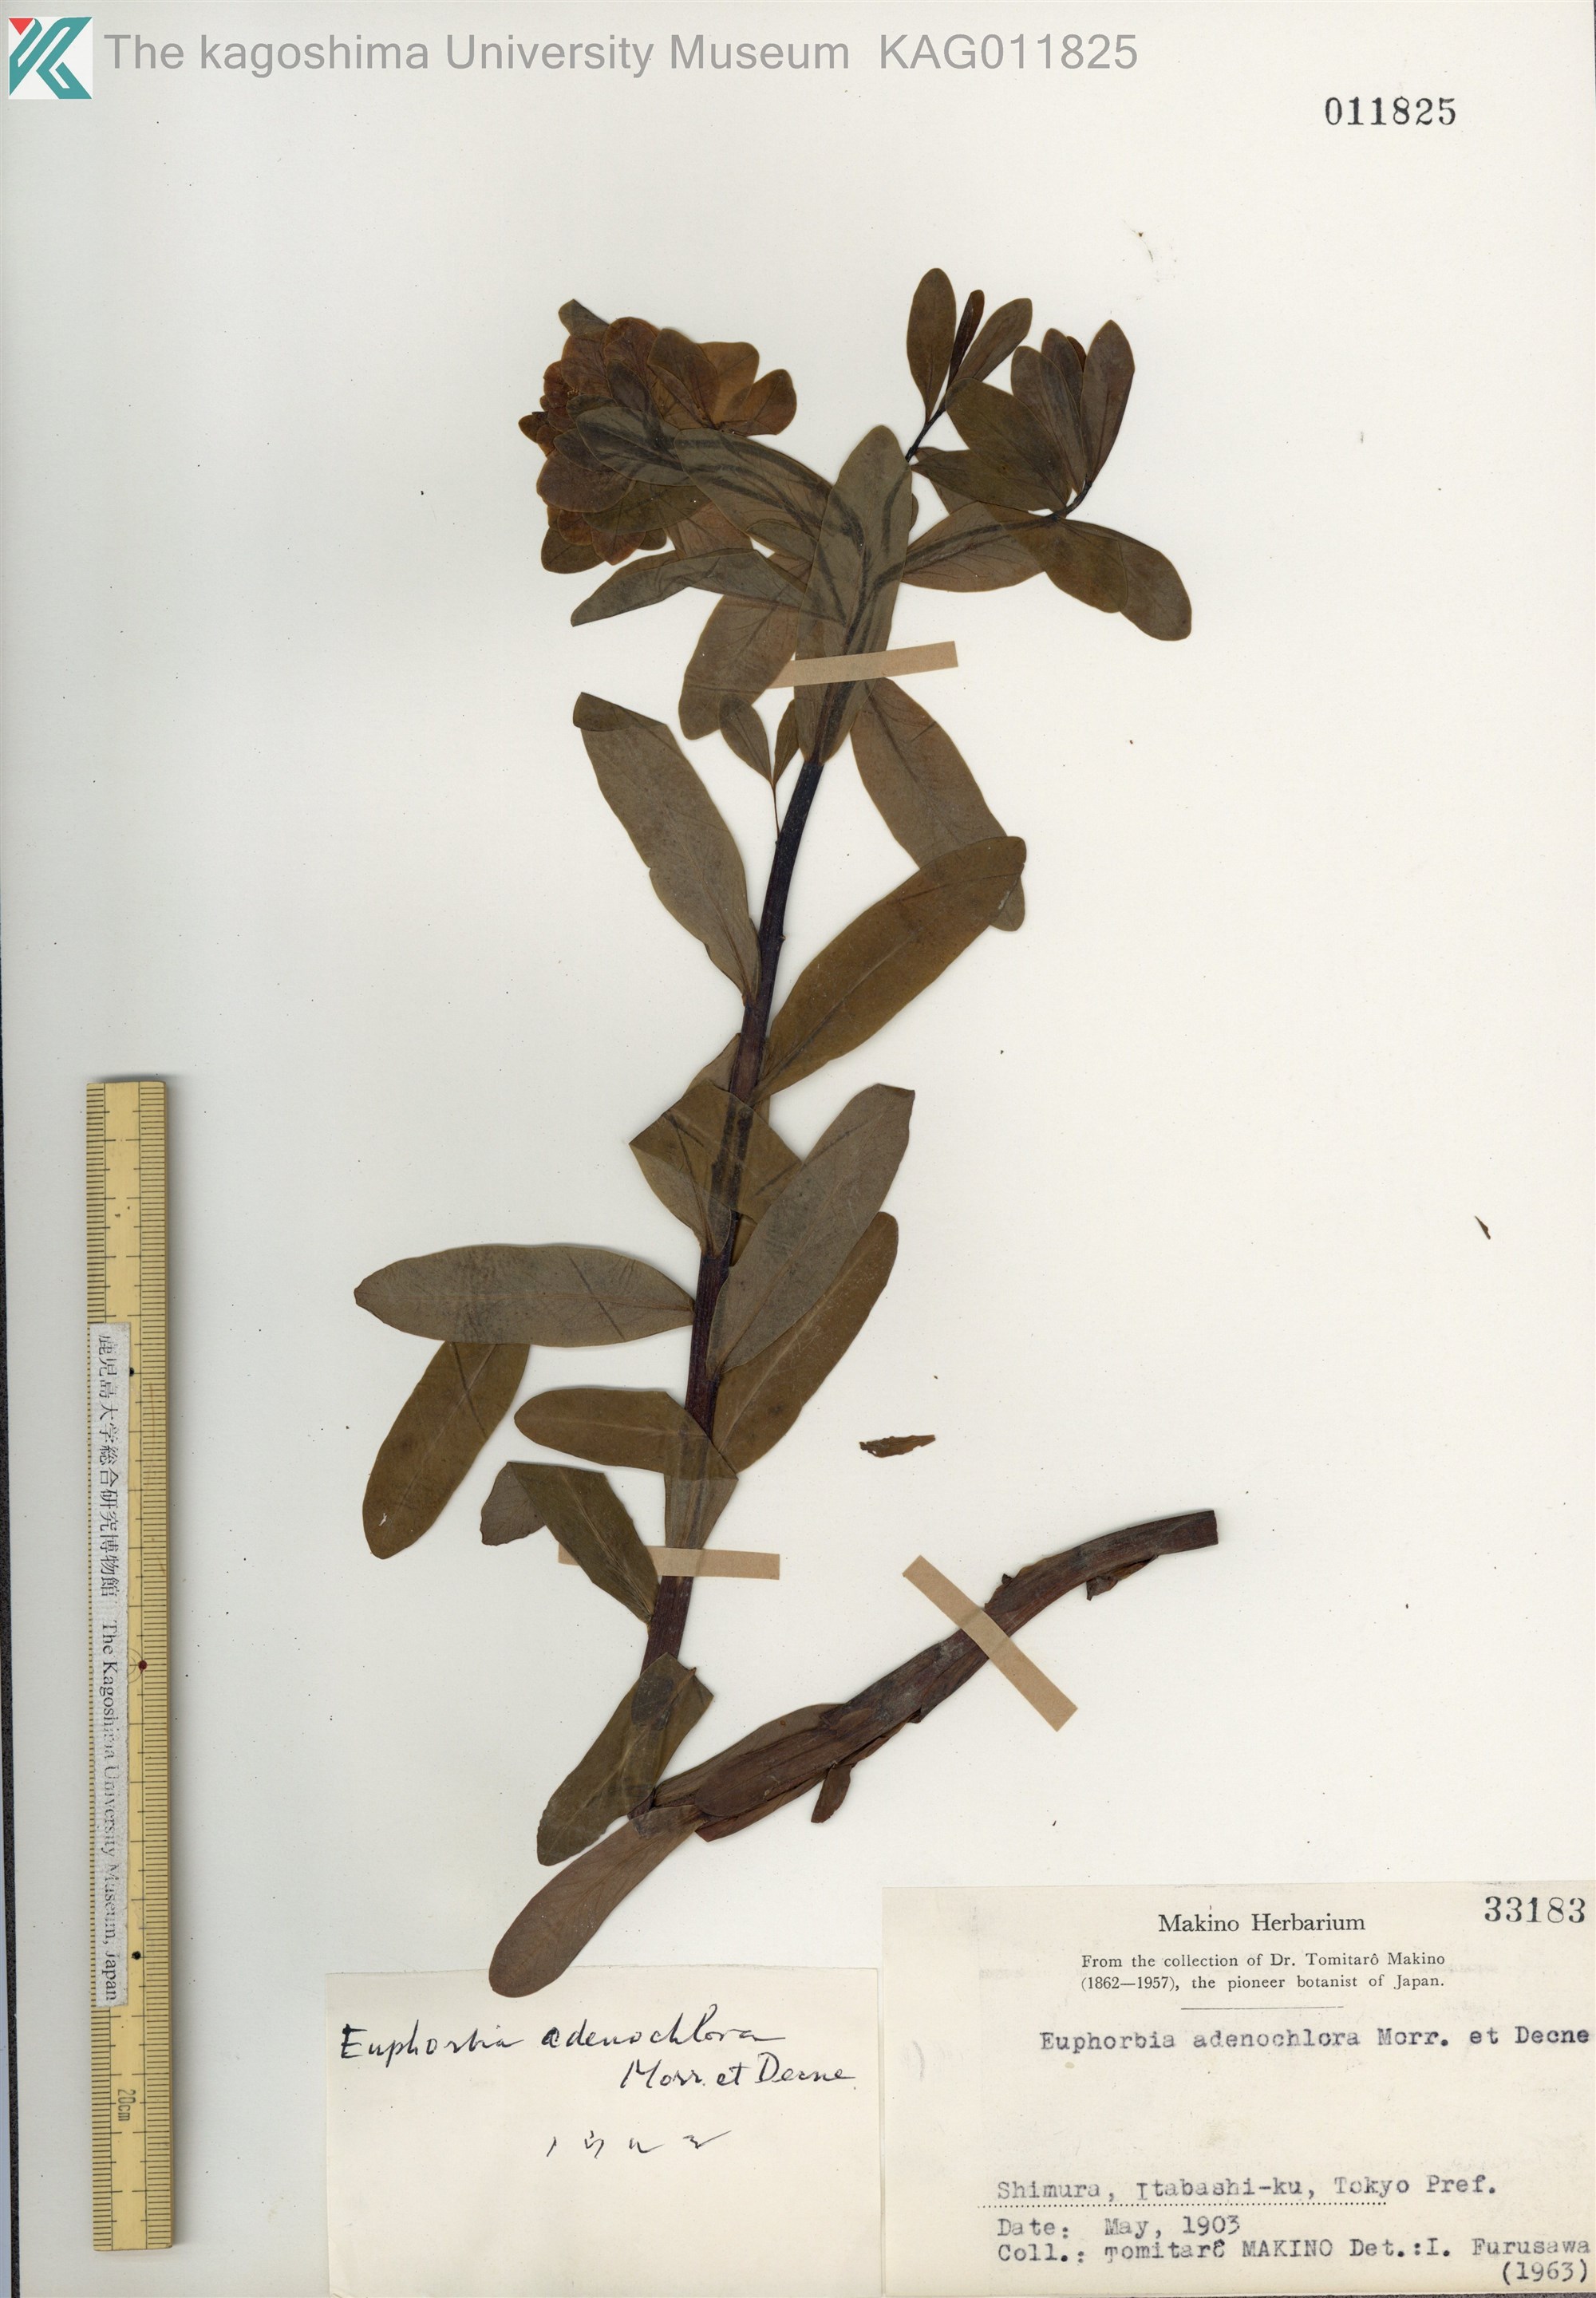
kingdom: Plantae
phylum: Tracheophyta
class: Magnoliopsida
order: Malpighiales
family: Euphorbiaceae
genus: Euphorbia
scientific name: Euphorbia adenochlora
